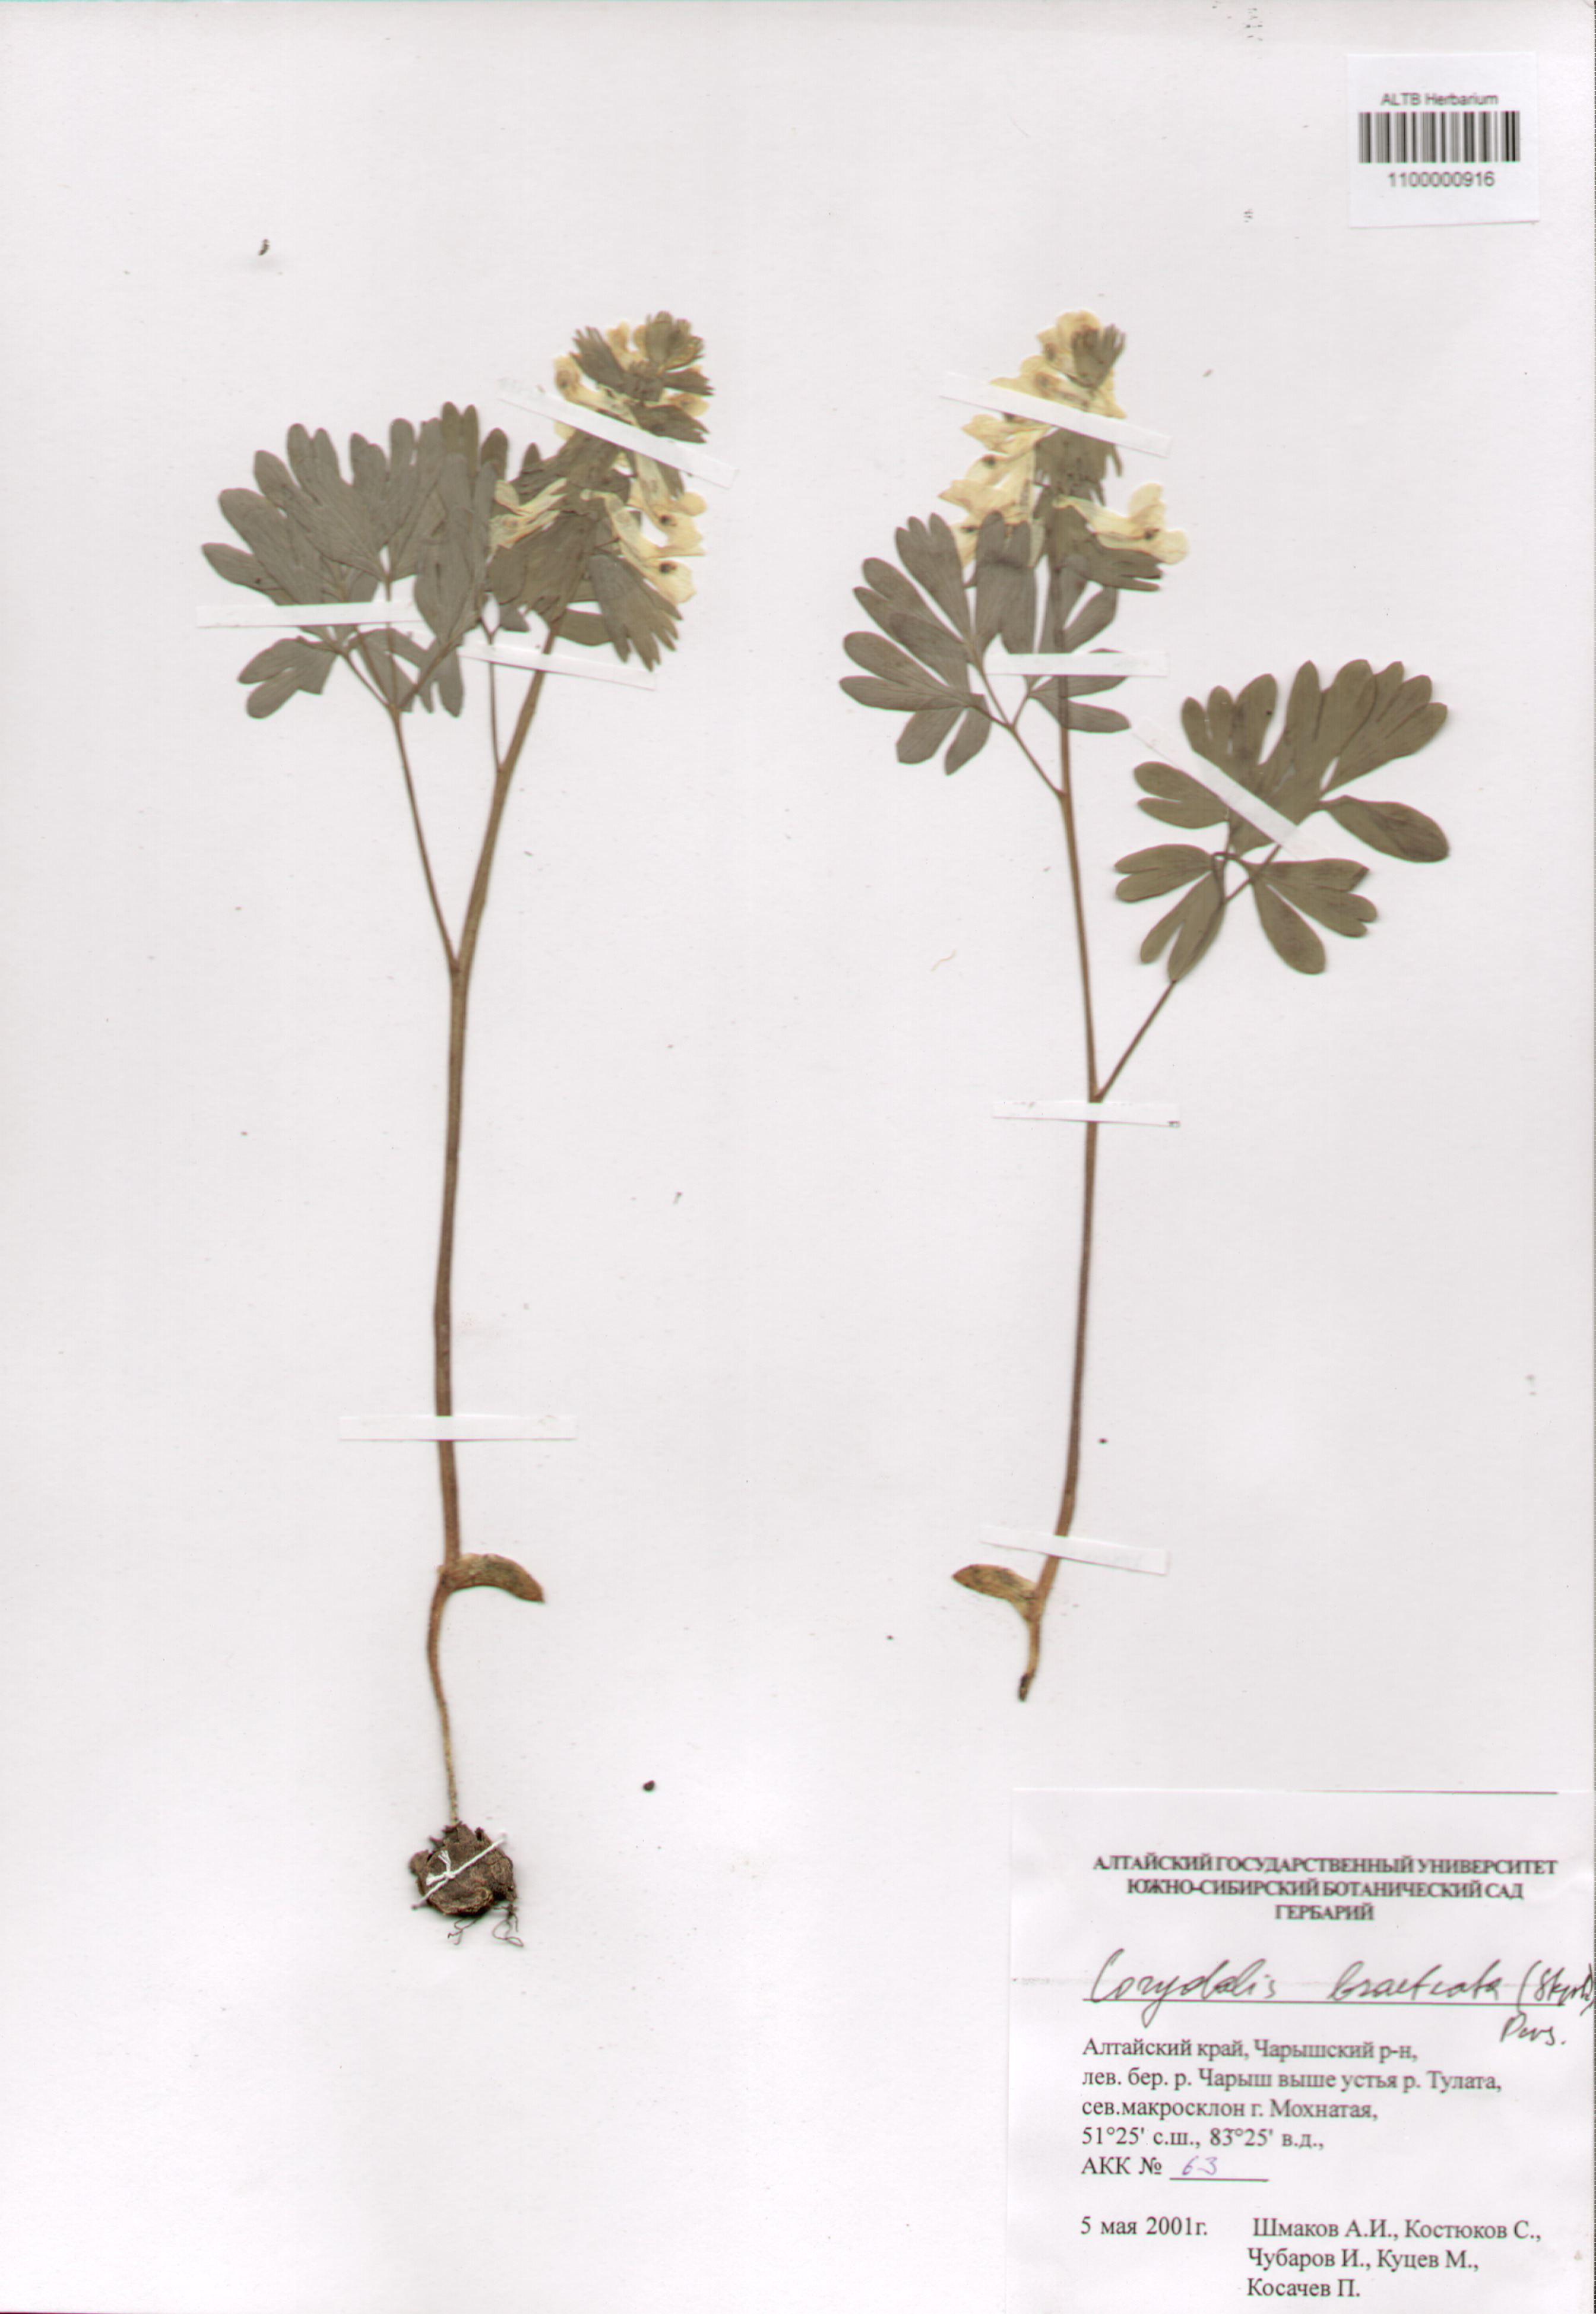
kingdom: Plantae
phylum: Tracheophyta
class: Magnoliopsida
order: Ranunculales
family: Papaveraceae
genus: Corydalis
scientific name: Corydalis bracteata
